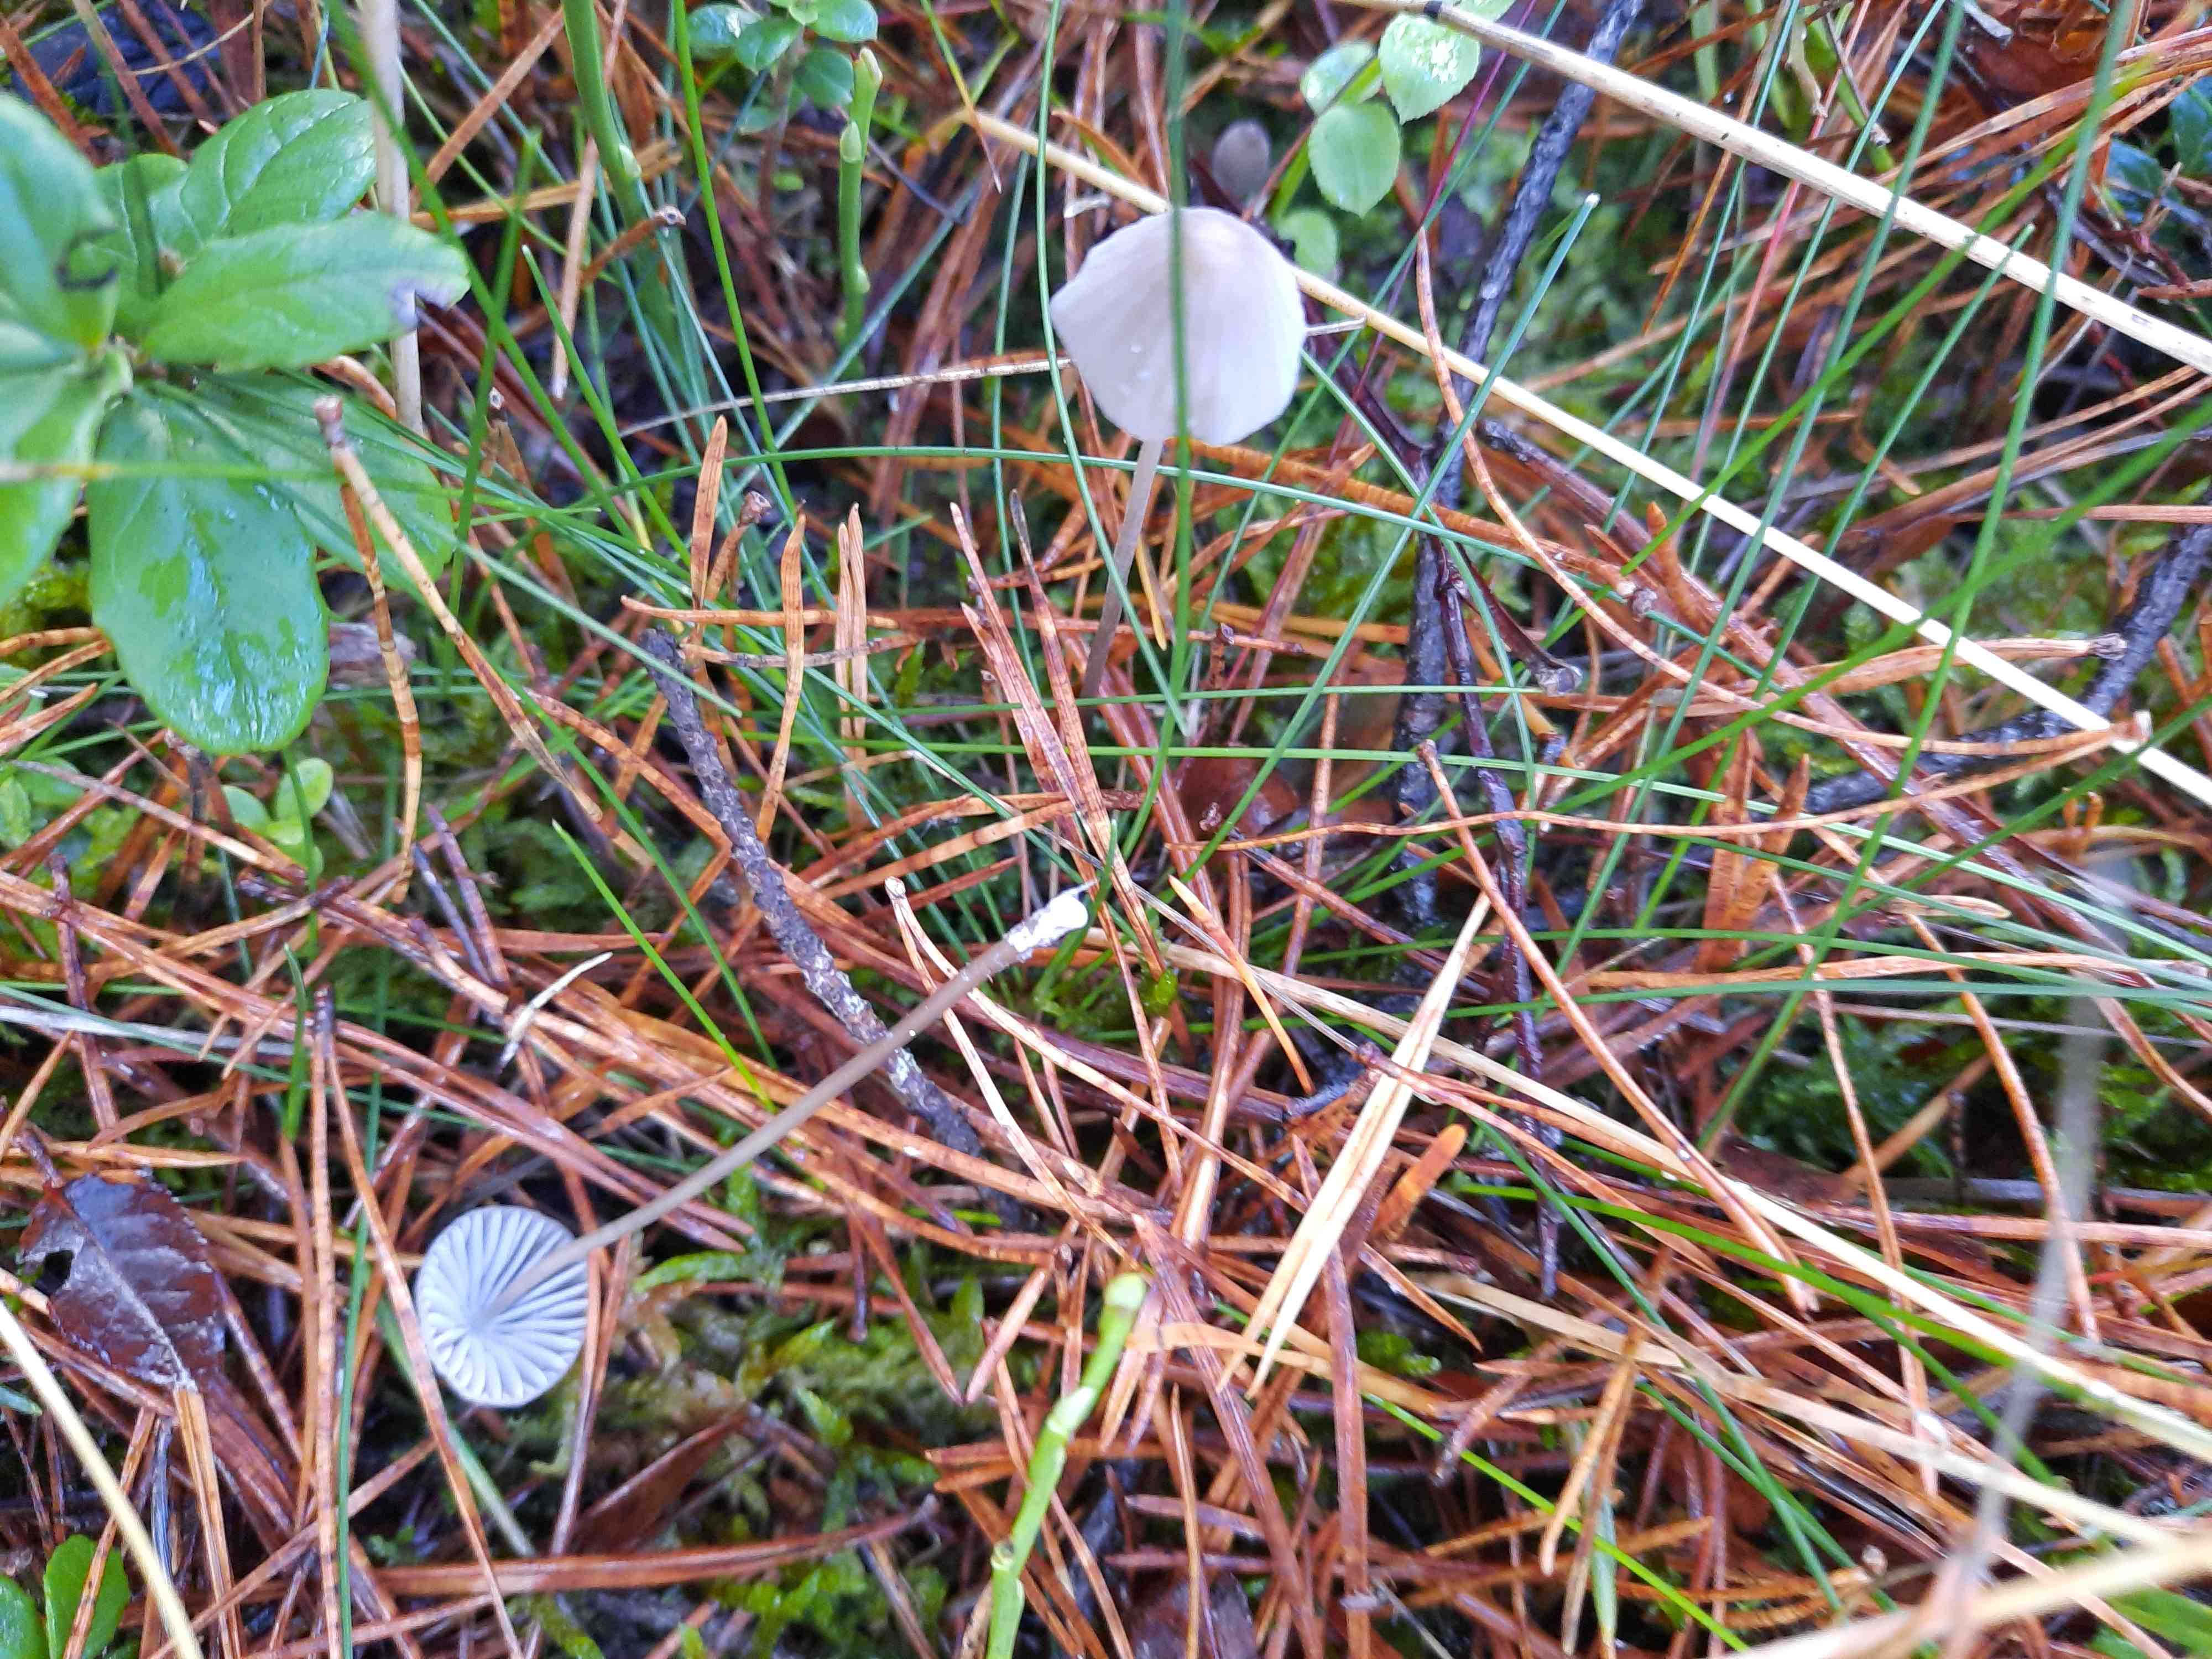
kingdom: Fungi
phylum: Basidiomycota
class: Agaricomycetes
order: Agaricales
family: Mycenaceae
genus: Mycena
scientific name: Mycena galopus
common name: hvidmælket huesvamp
